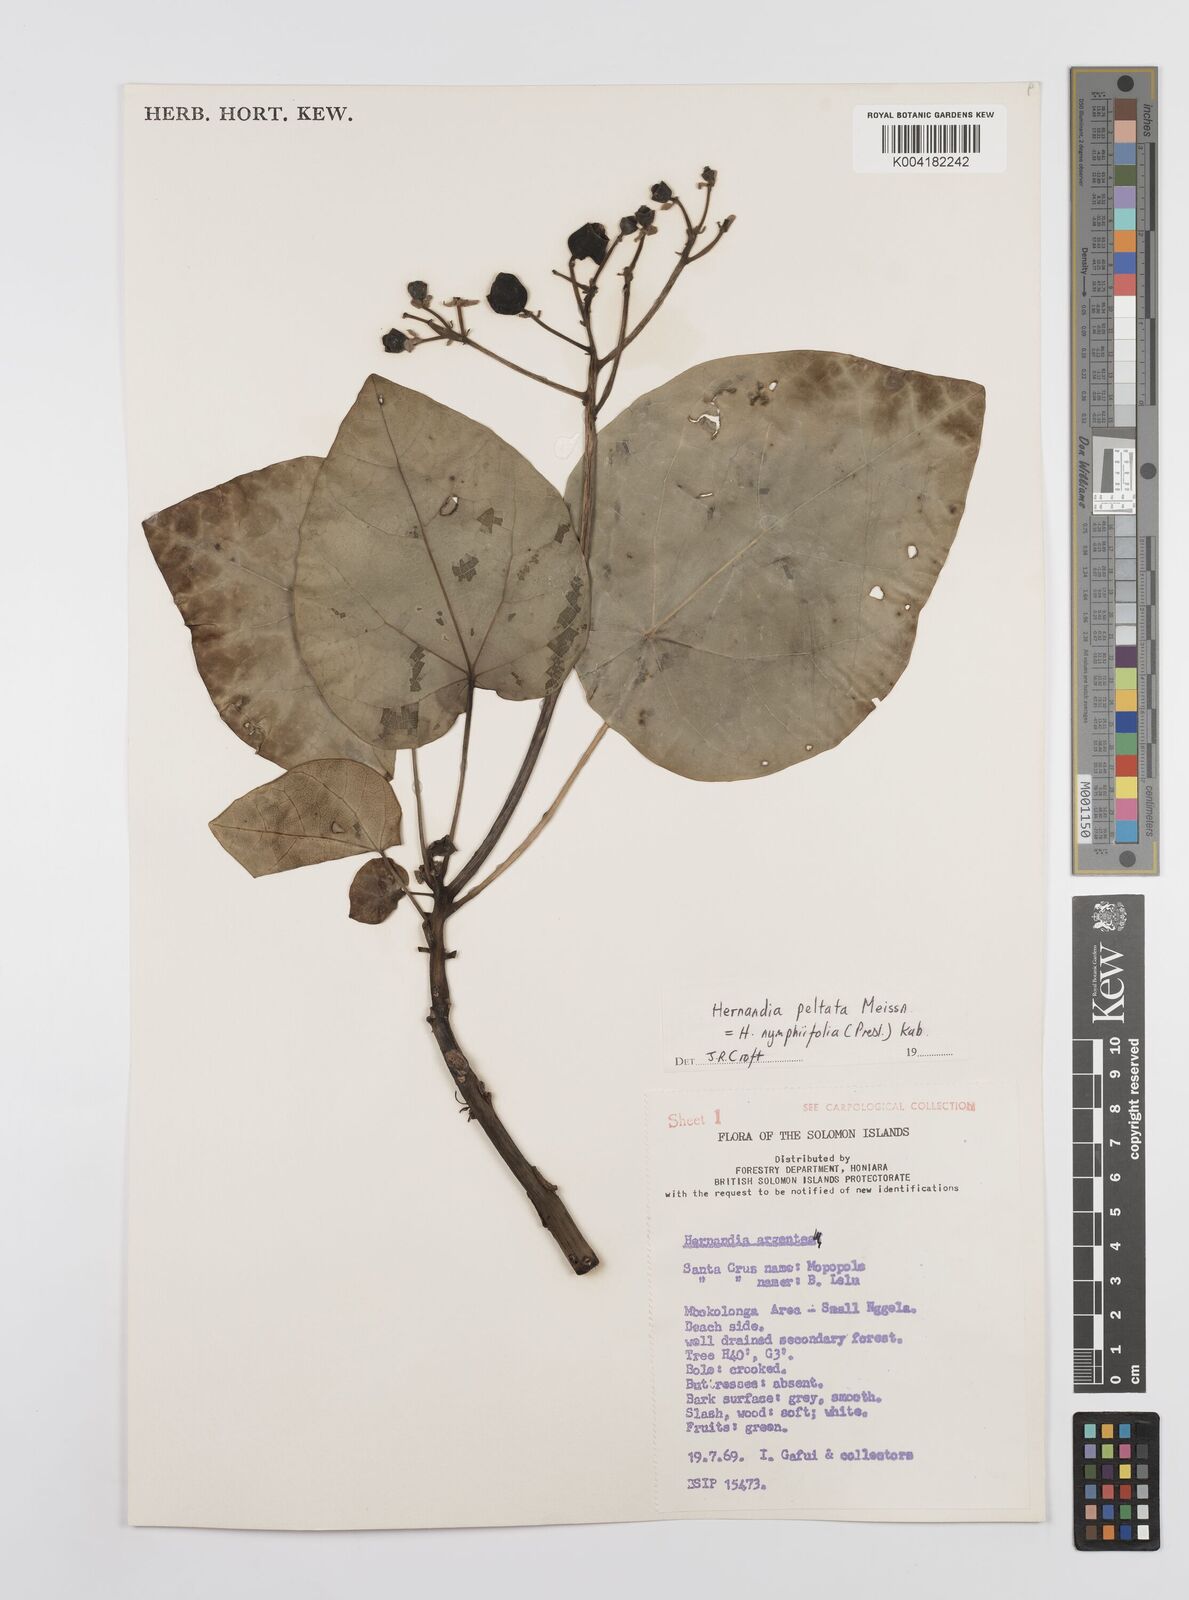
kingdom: Plantae
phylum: Tracheophyta
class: Magnoliopsida
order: Laurales
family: Hernandiaceae
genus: Hernandia
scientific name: Hernandia nymphaeifolia
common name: Sea hearse
